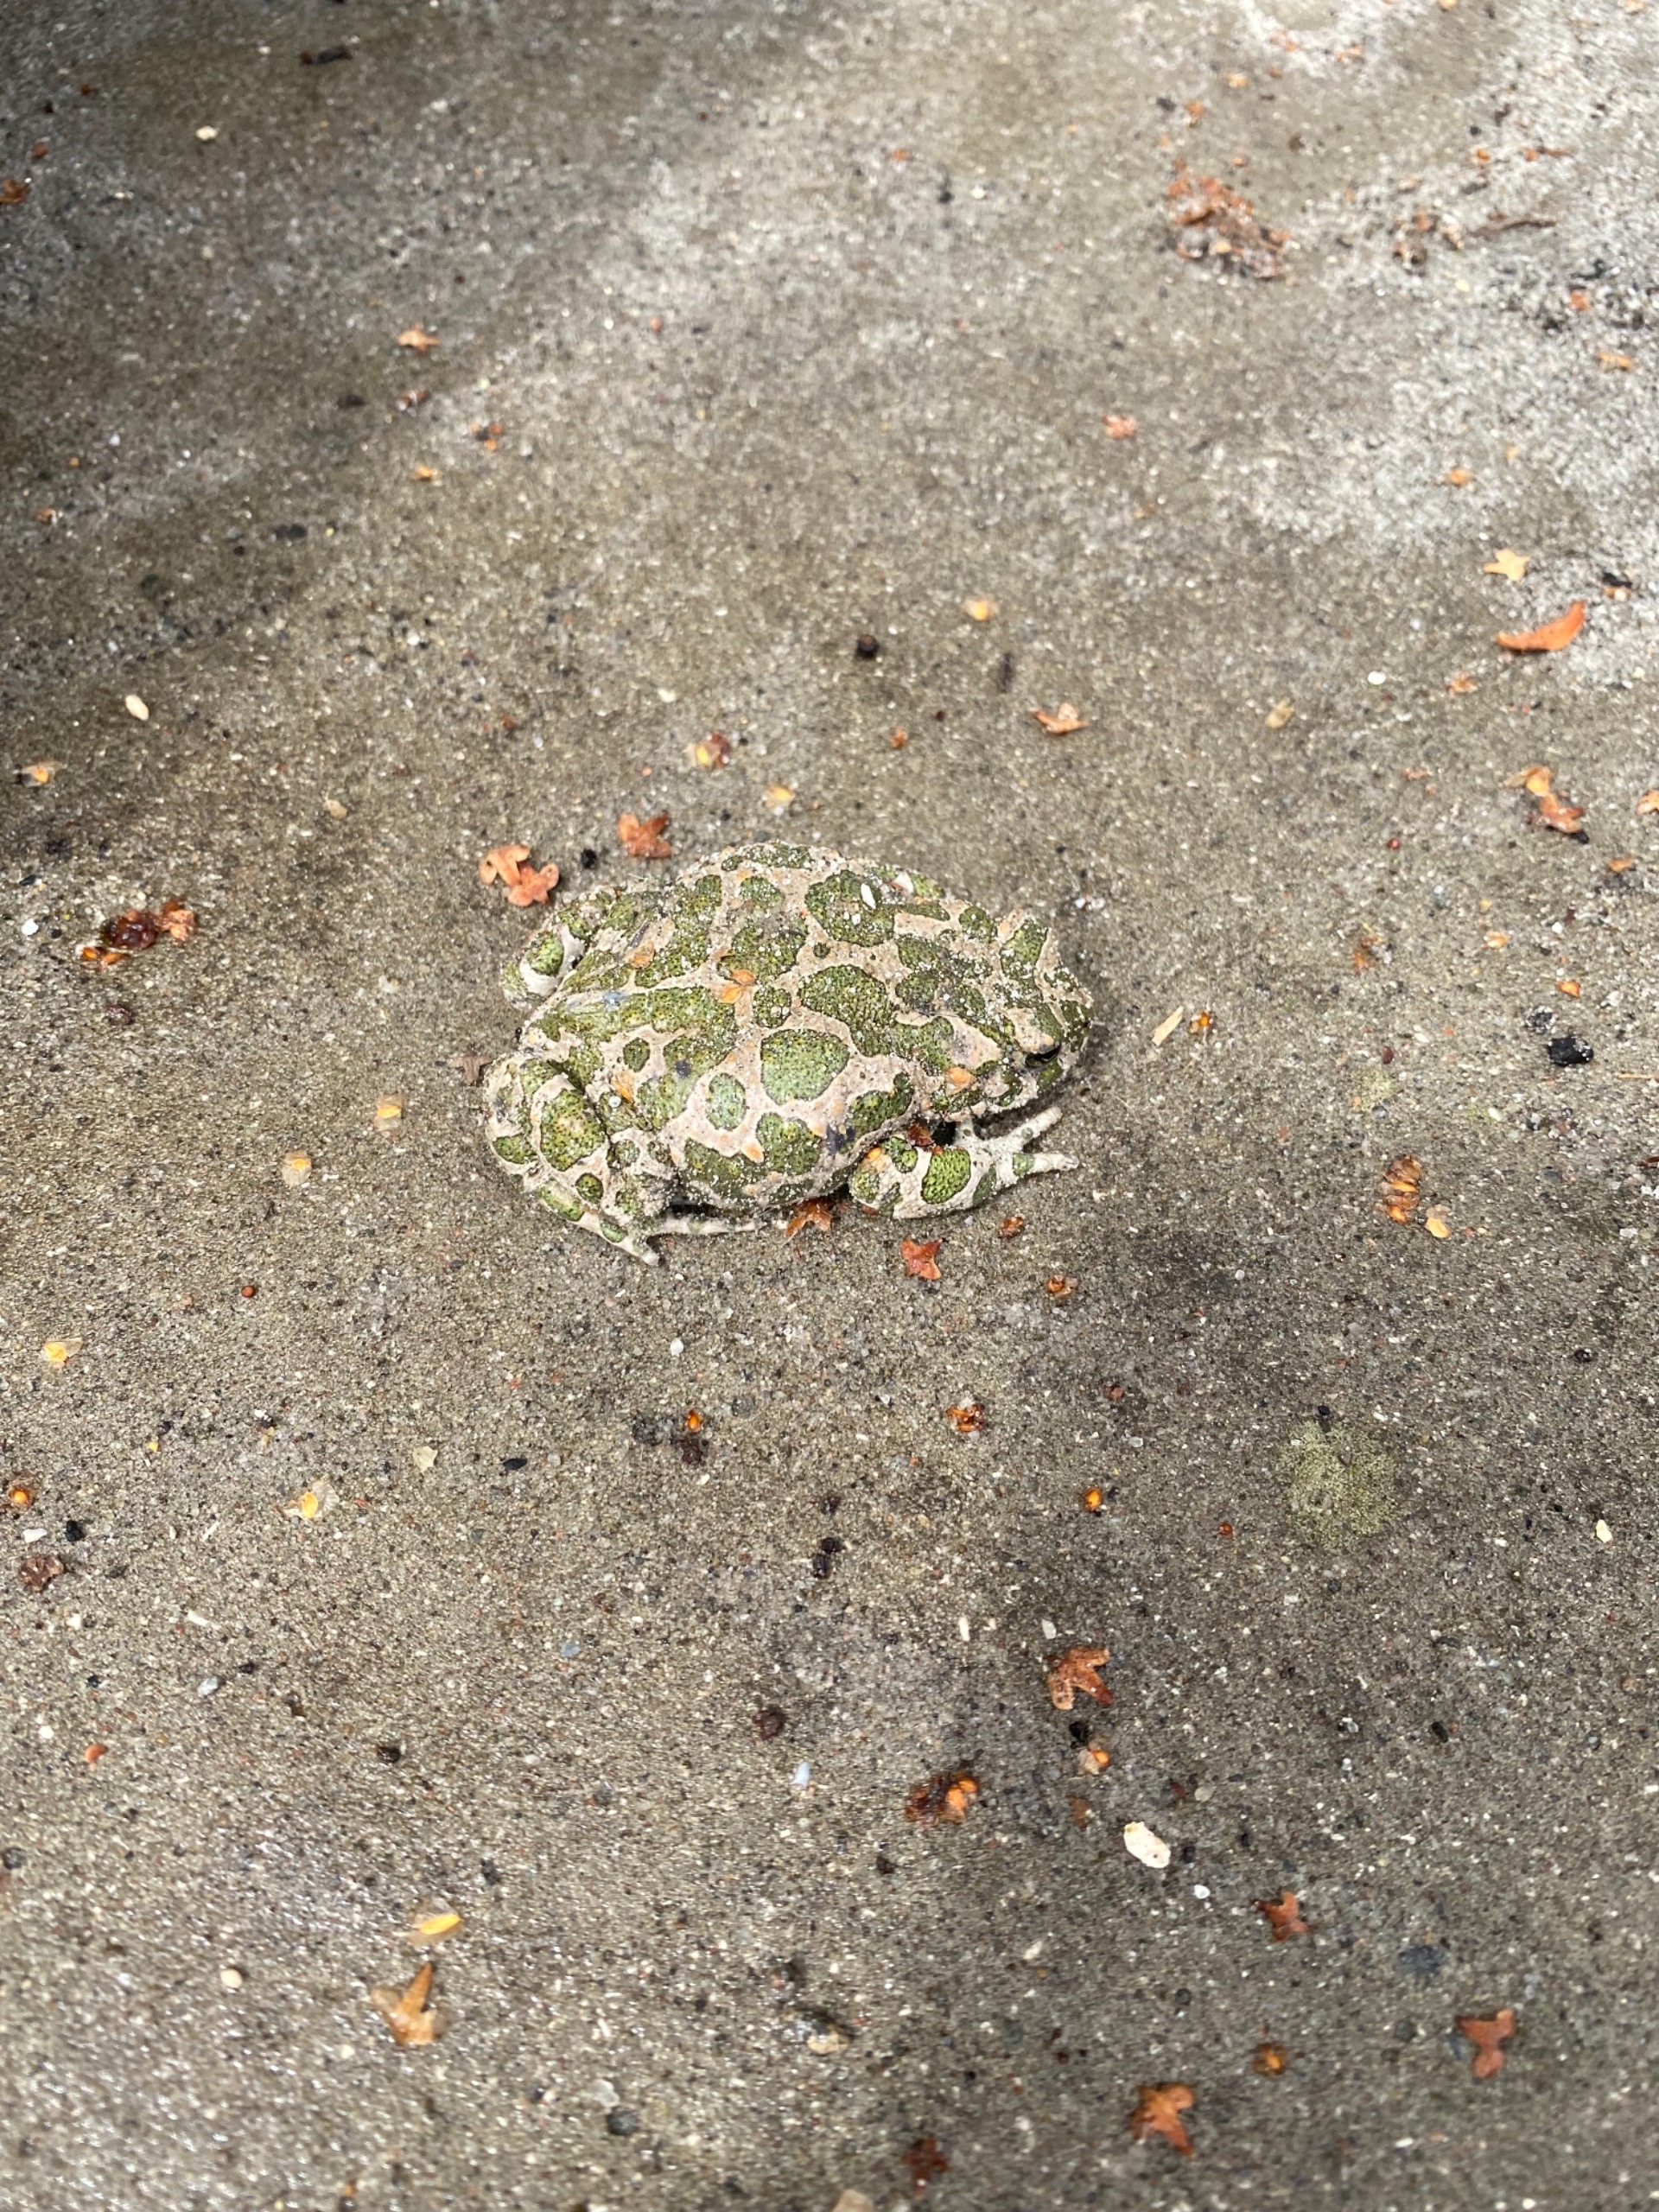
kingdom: Animalia
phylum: Chordata
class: Amphibia
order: Anura
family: Bufonidae
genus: Bufotes
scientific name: Bufotes viridis
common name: Grønbroget tudse
